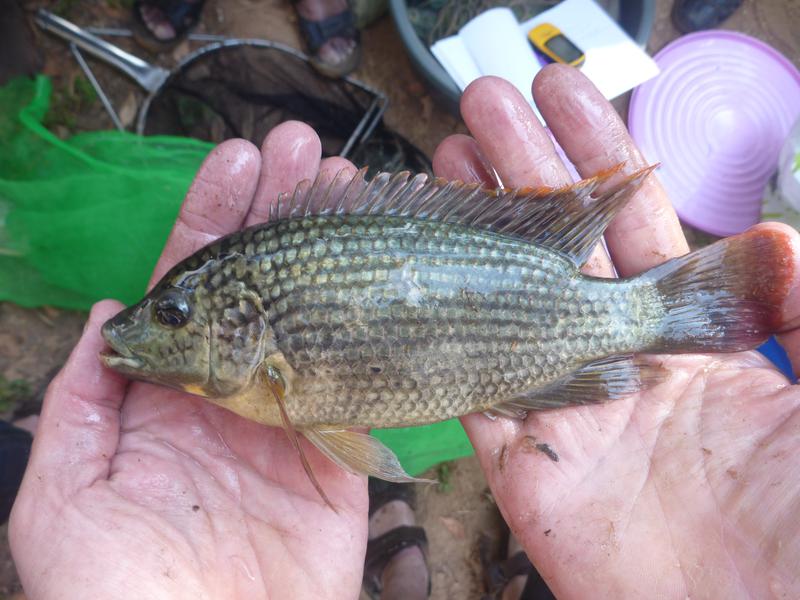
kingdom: Animalia
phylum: Chordata
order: Perciformes
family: Cichlidae
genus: Oreochromis
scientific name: Oreochromis shiranus
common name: Chilwa tilapia
